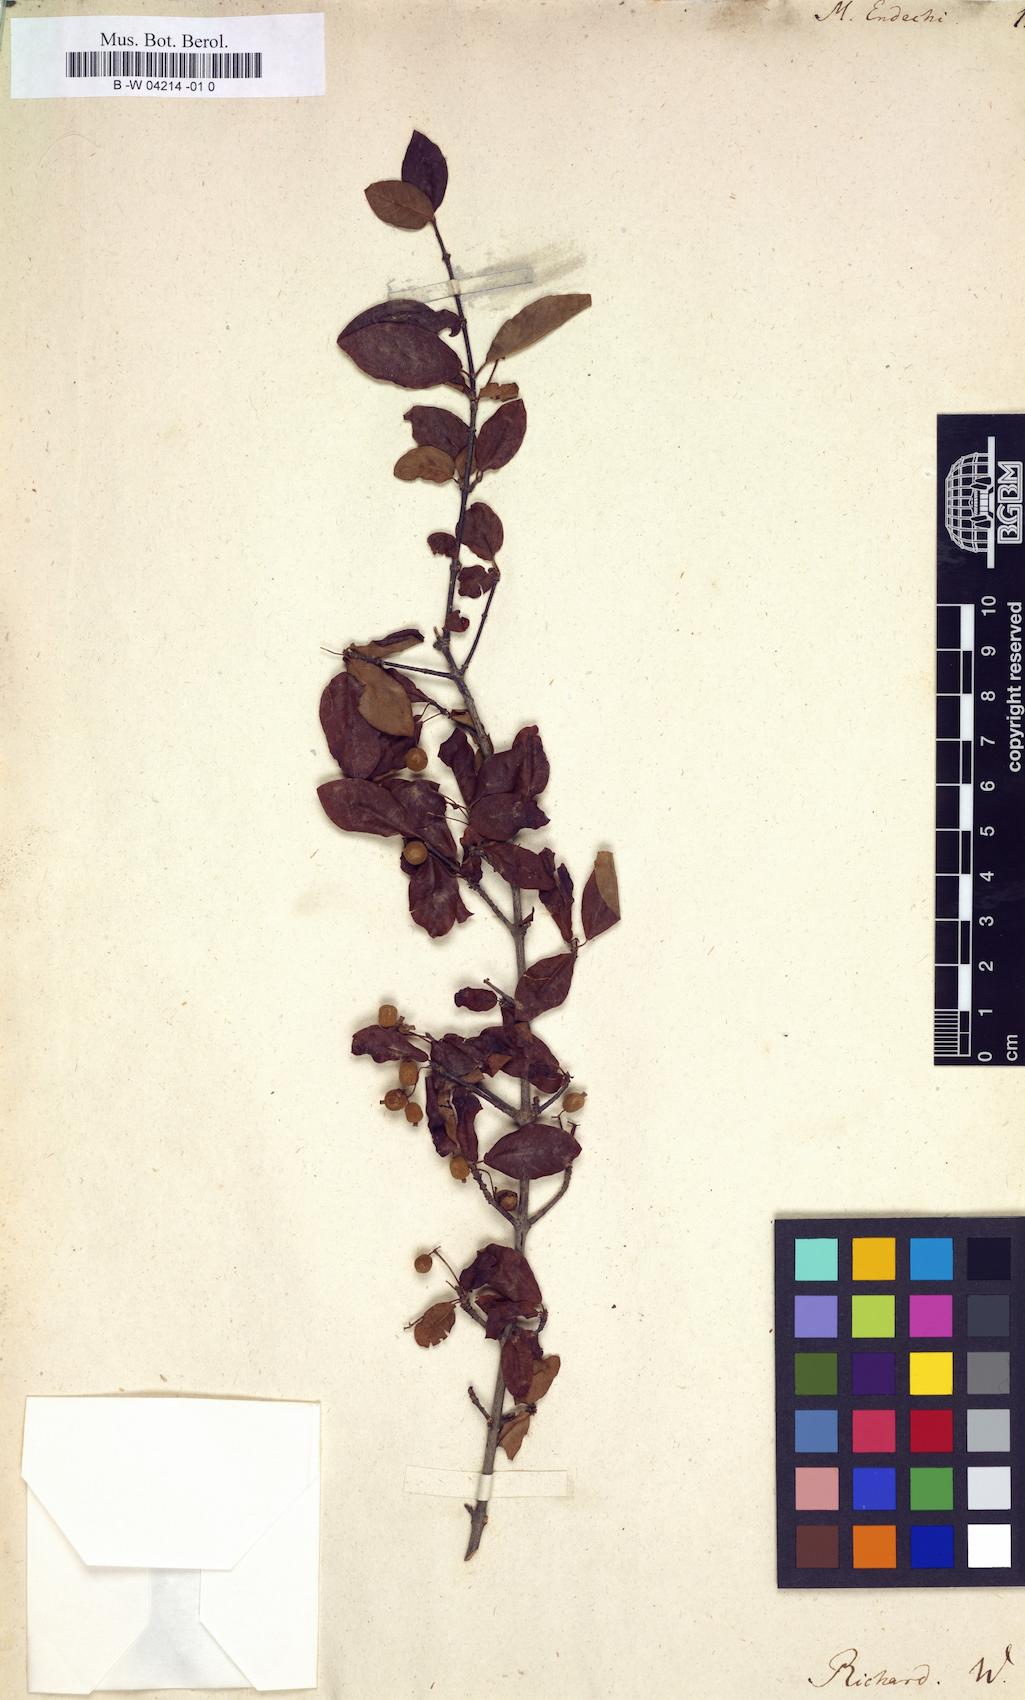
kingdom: Plantae
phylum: Tracheophyta
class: Magnoliopsida
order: Brassicales
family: Brassicaceae
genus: Matthiola
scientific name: Matthiola
